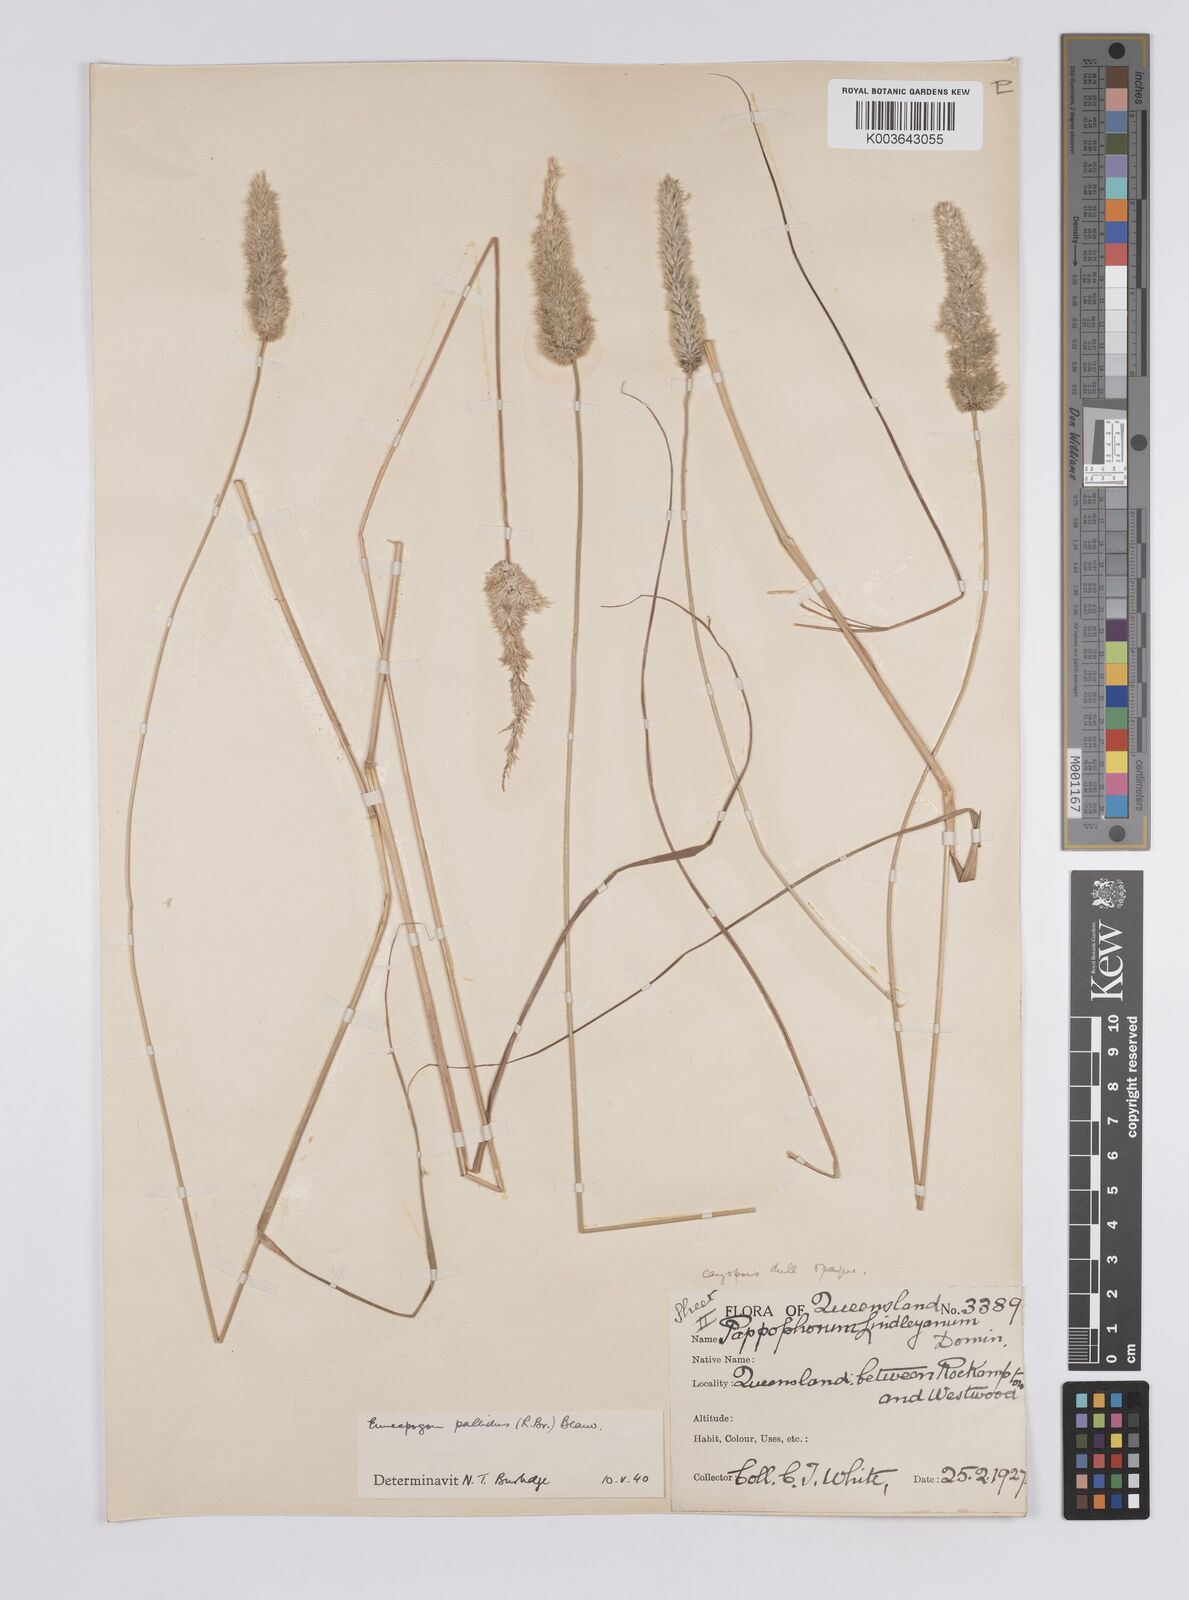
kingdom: Plantae
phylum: Tracheophyta
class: Liliopsida
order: Poales
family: Poaceae
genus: Enneapogon
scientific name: Enneapogon pallidus
